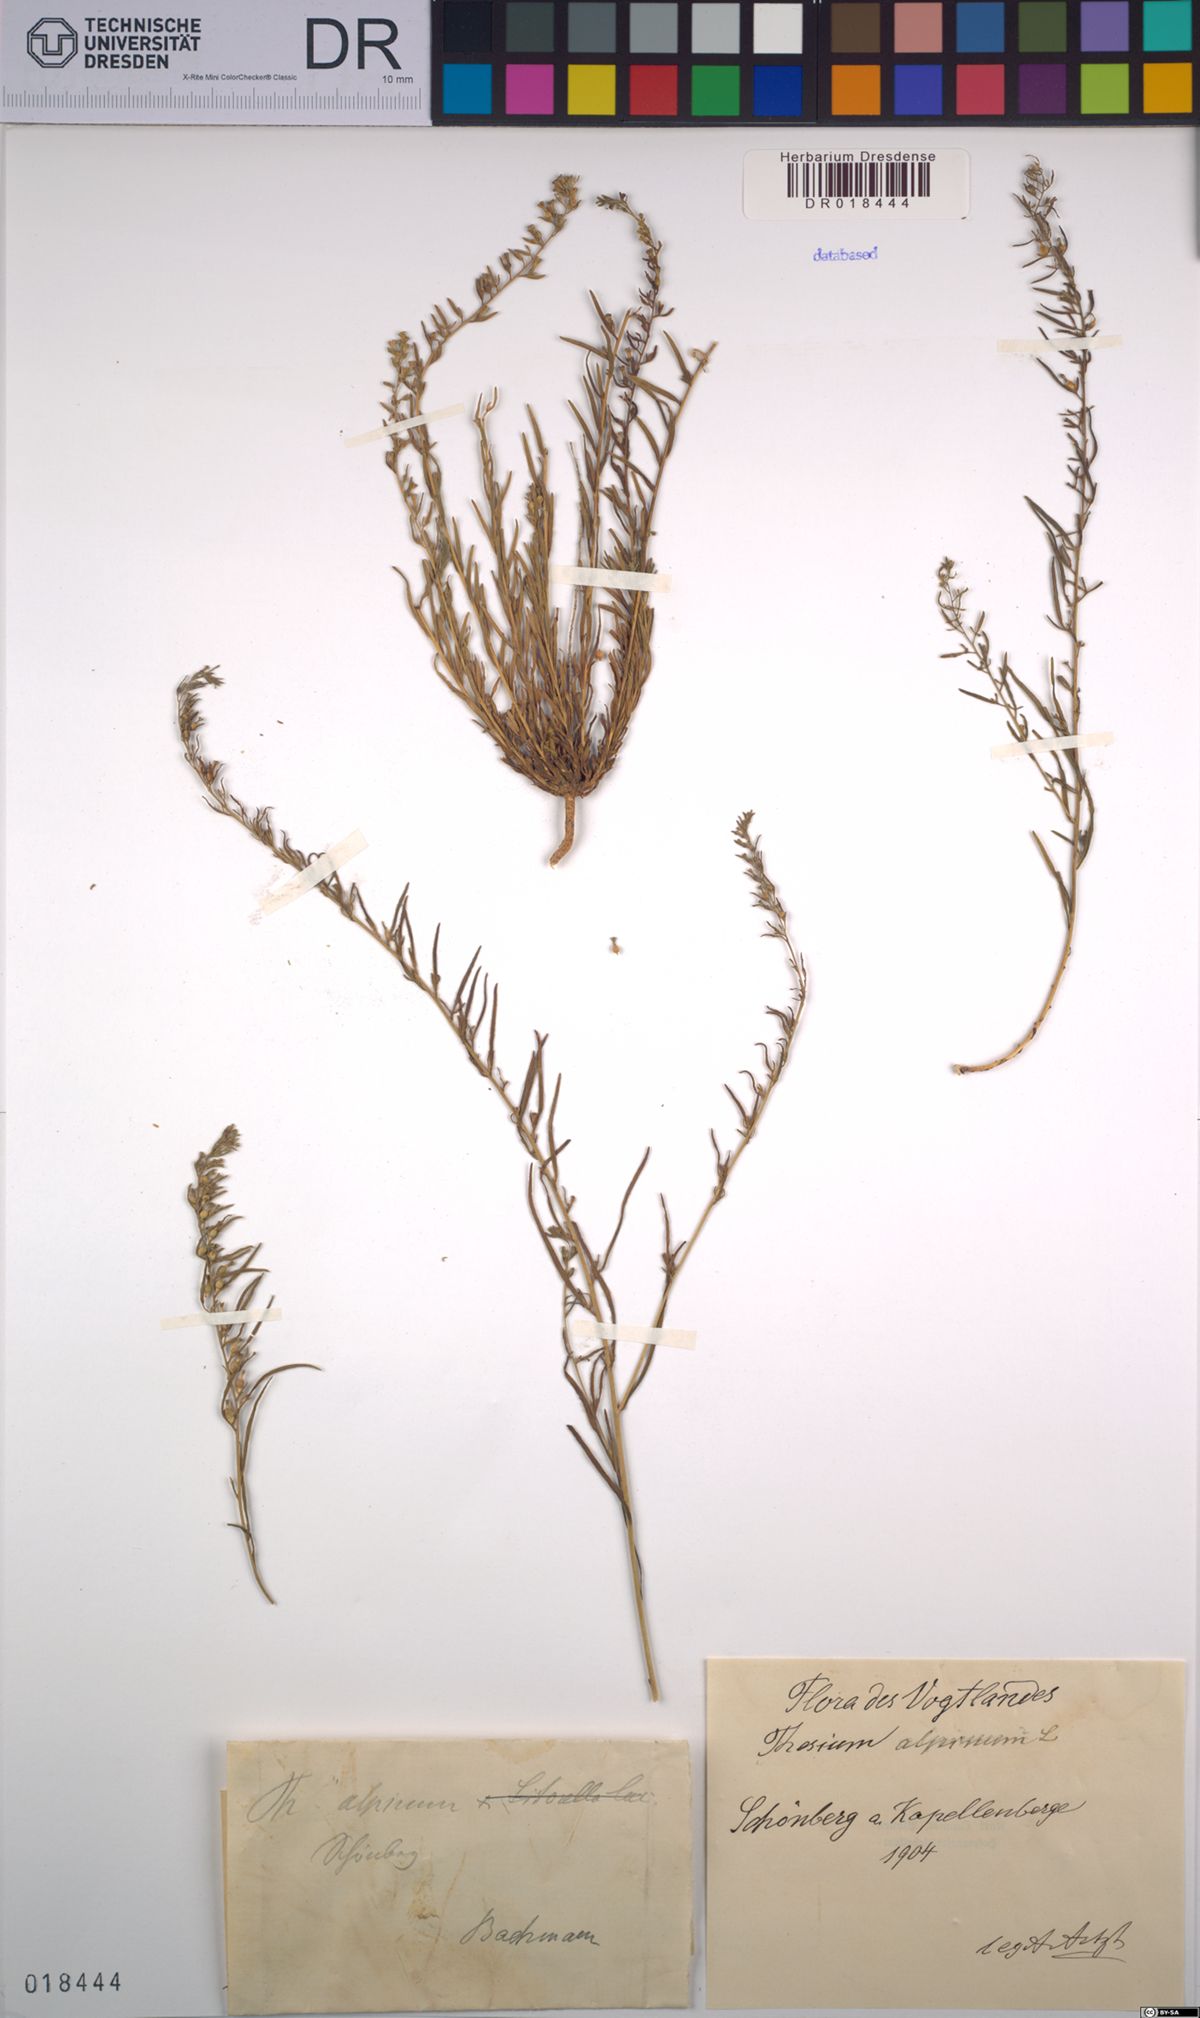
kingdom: Plantae
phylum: Tracheophyta
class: Magnoliopsida
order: Santalales
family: Thesiaceae
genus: Thesium
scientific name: Thesium alpinum
